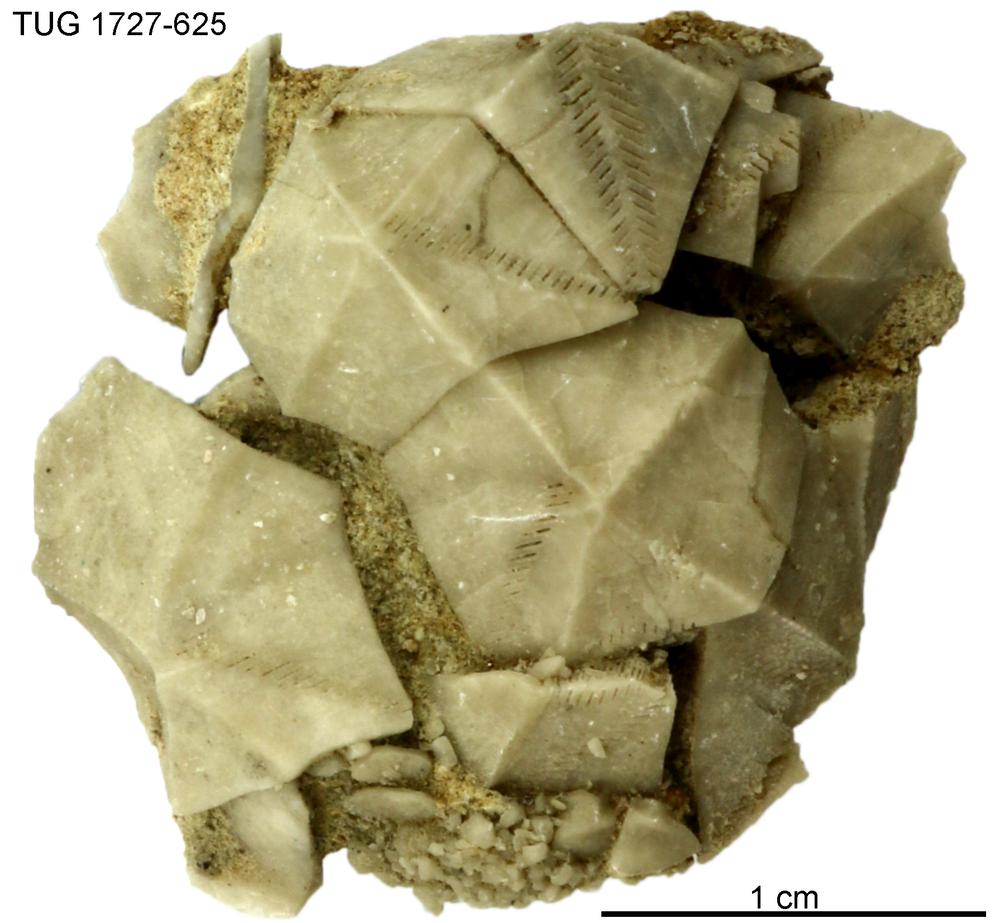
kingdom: Animalia
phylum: Echinodermata
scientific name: Echinodermata
